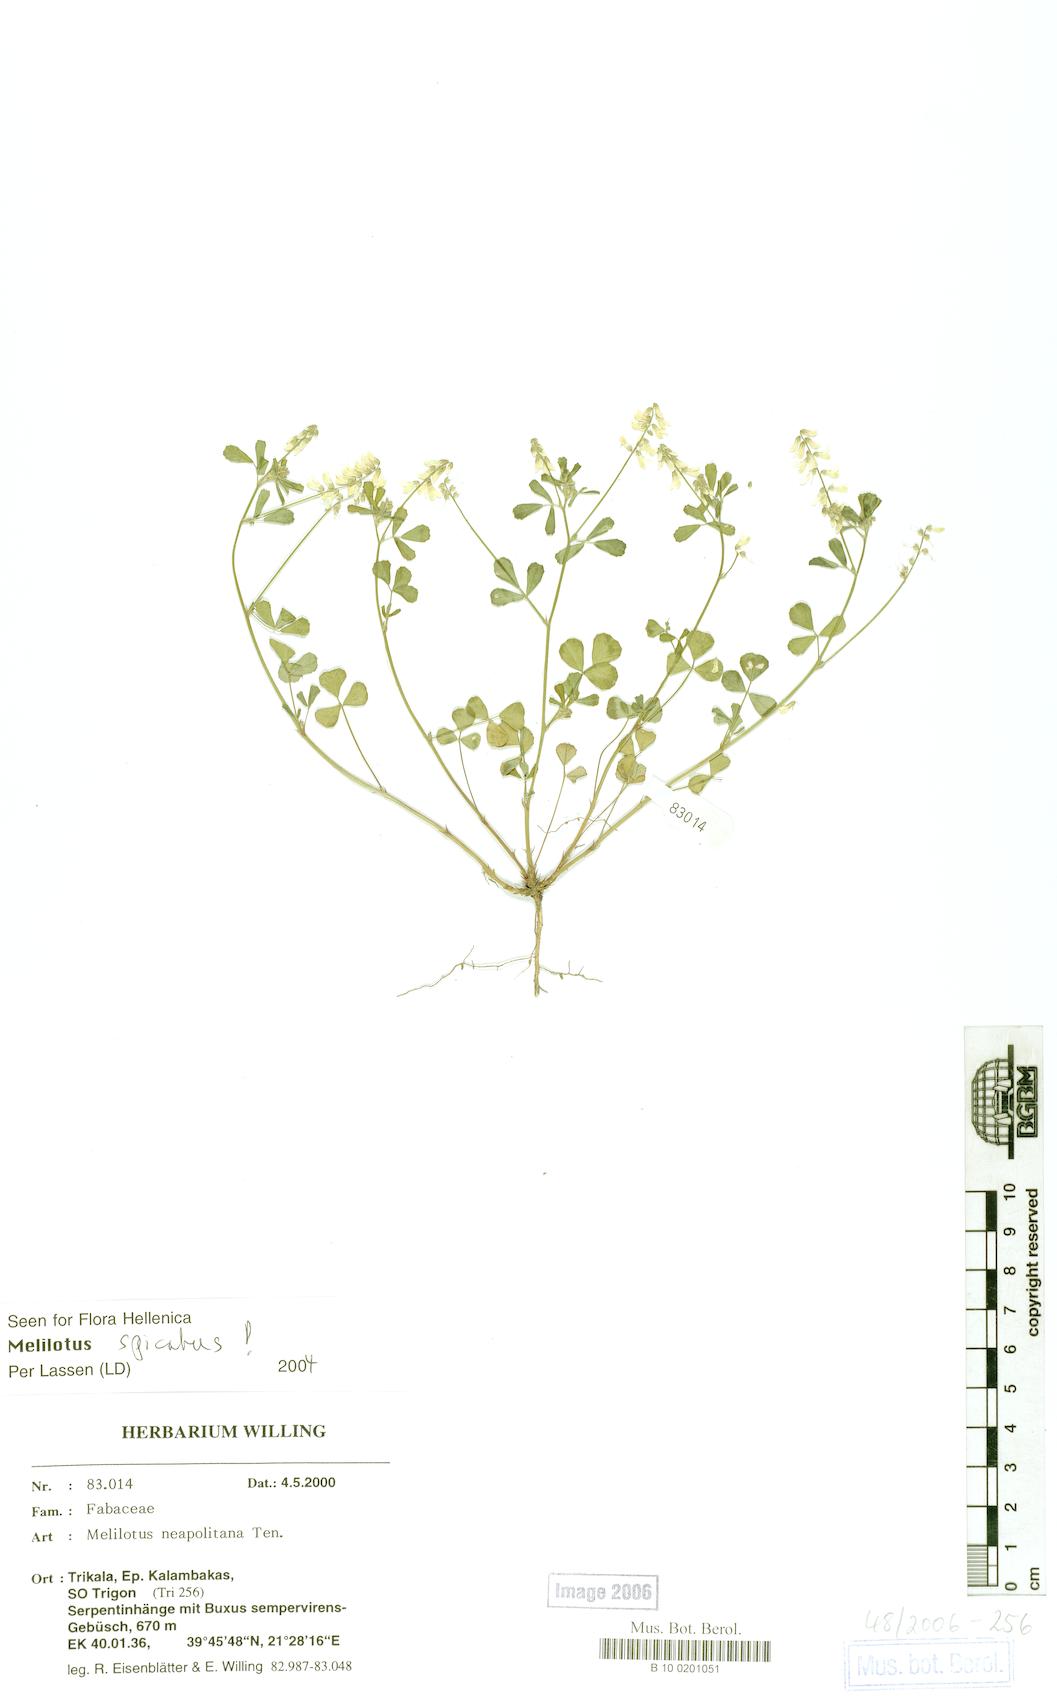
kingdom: Plantae
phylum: Tracheophyta
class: Magnoliopsida
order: Fabales
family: Fabaceae
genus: Melilotus
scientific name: Melilotus neapolitanus
